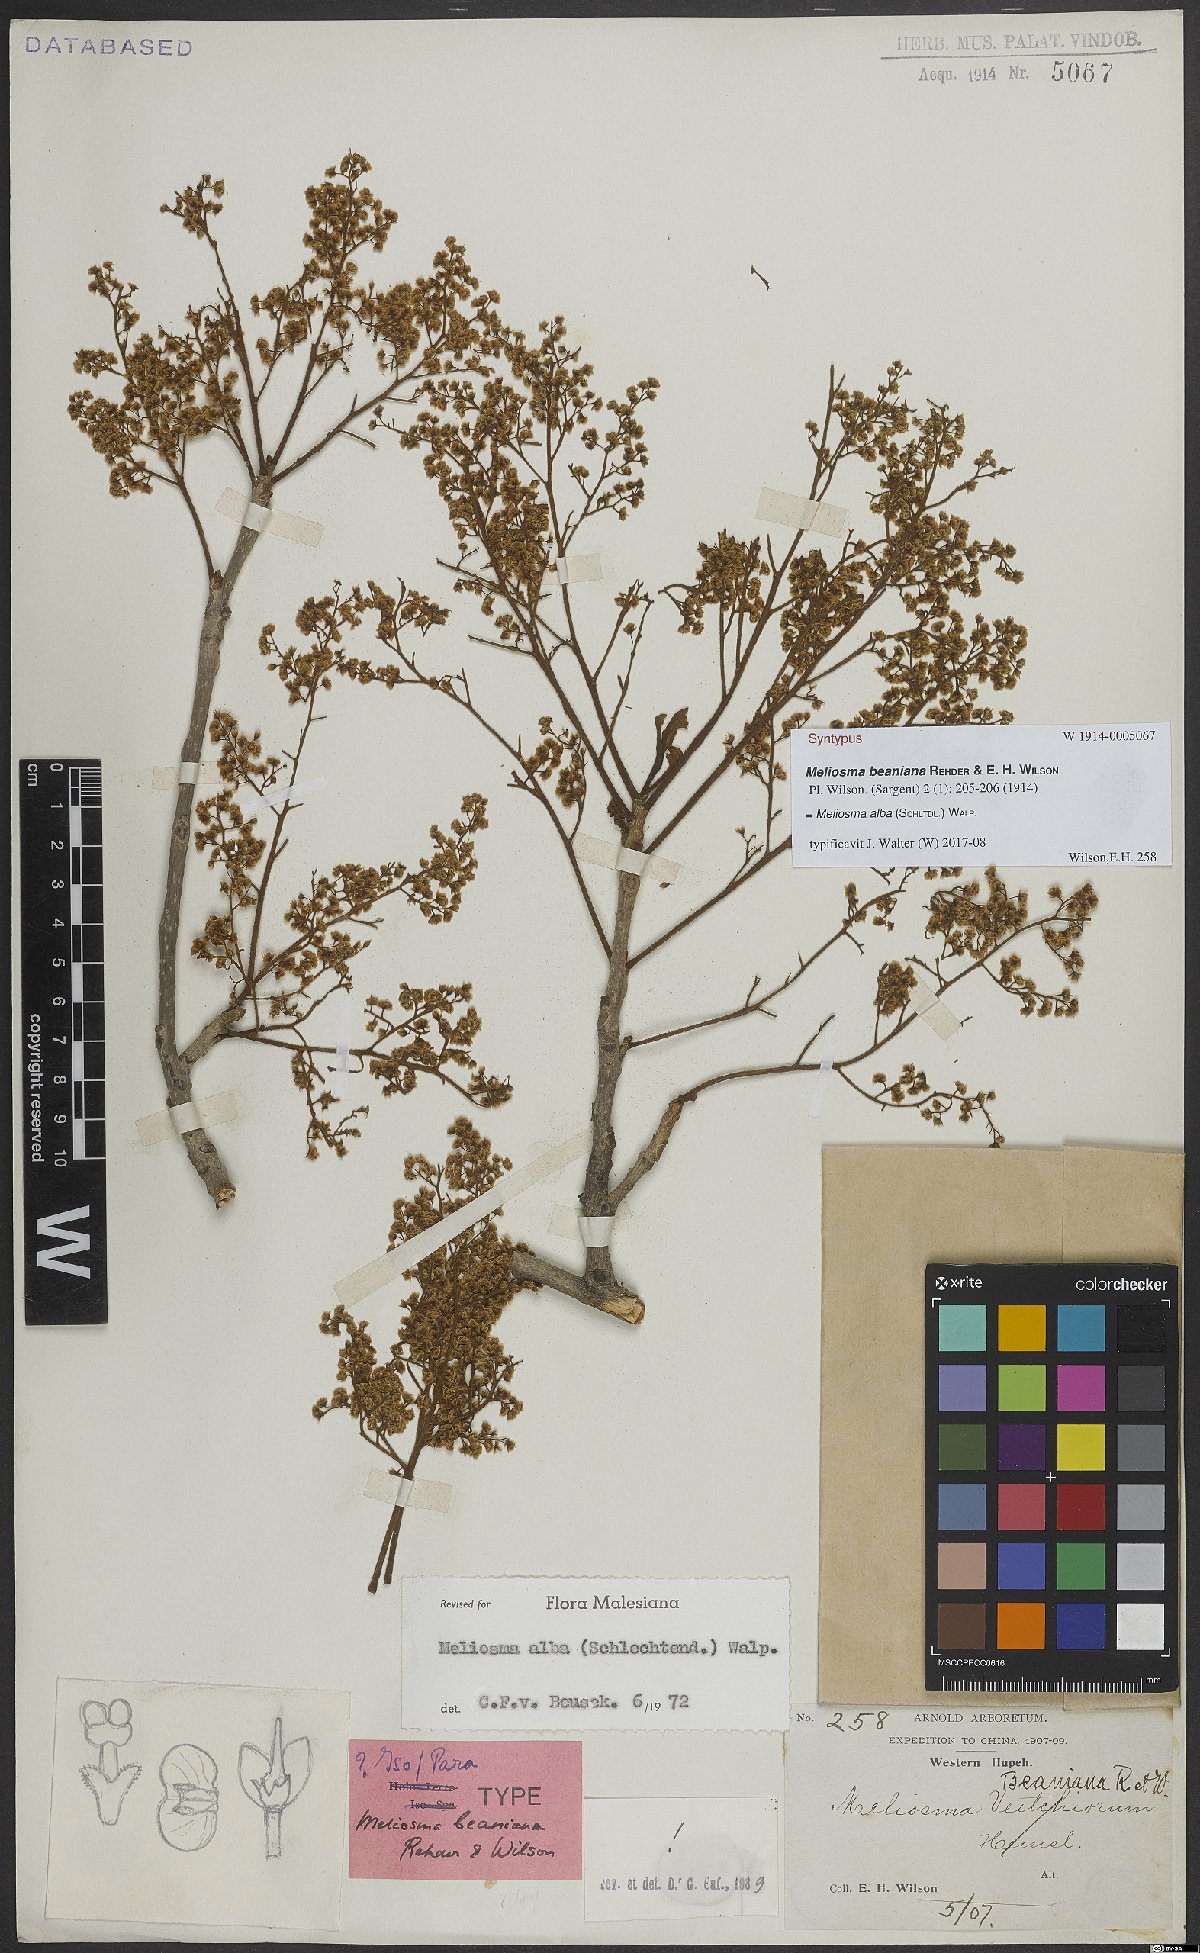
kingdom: Plantae
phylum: Tracheophyta
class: Magnoliopsida
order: Proteales
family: Sabiaceae
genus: Meliosma
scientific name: Meliosma alba
